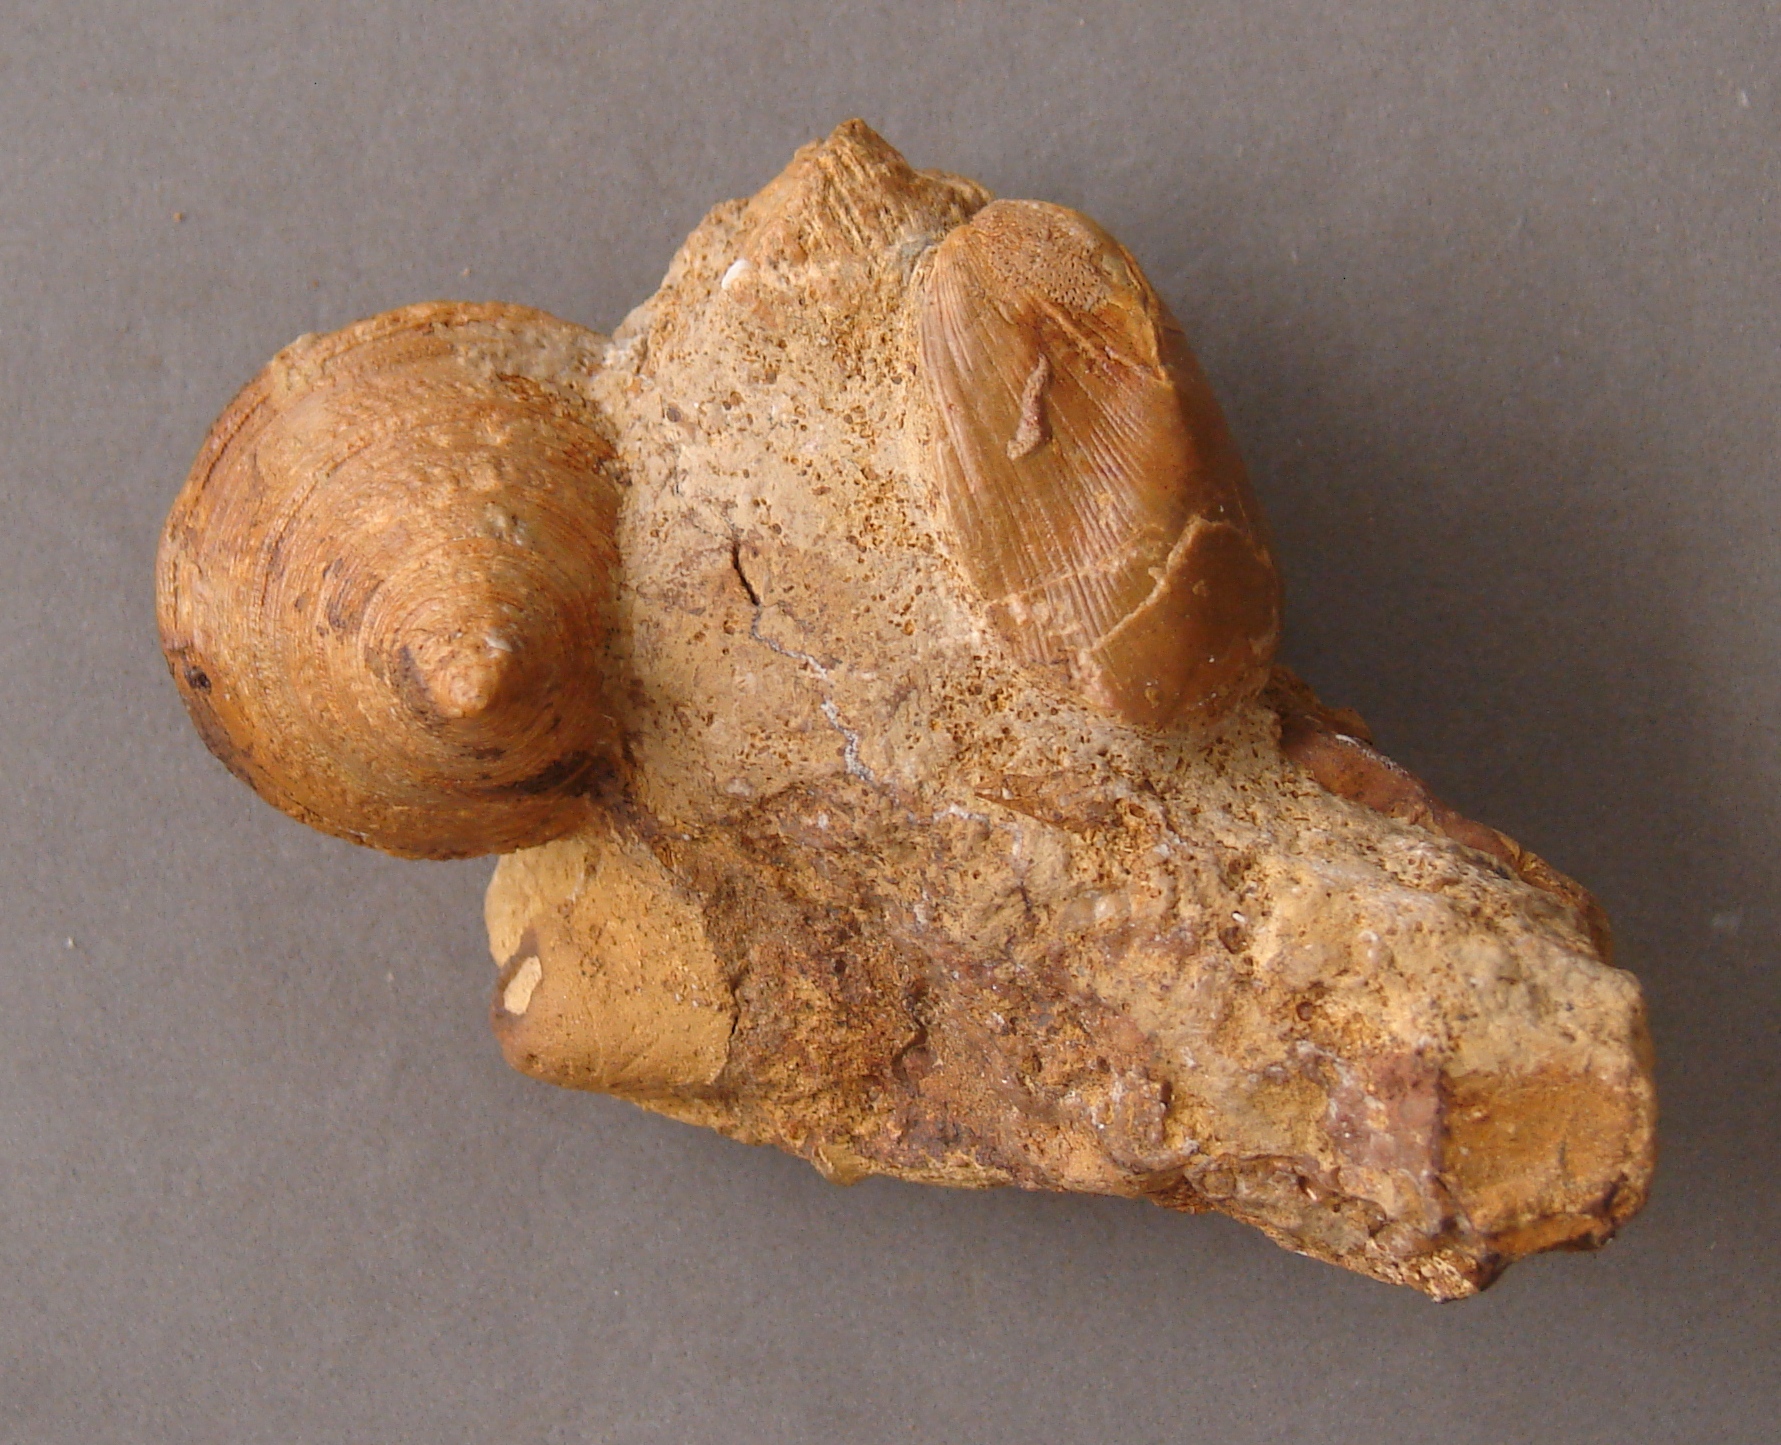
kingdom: Animalia
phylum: Mollusca
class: Gastropoda
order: Pleurotomariida
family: Pleurotomariidae
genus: Pyrgotrochus
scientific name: Pyrgotrochus elongatus
